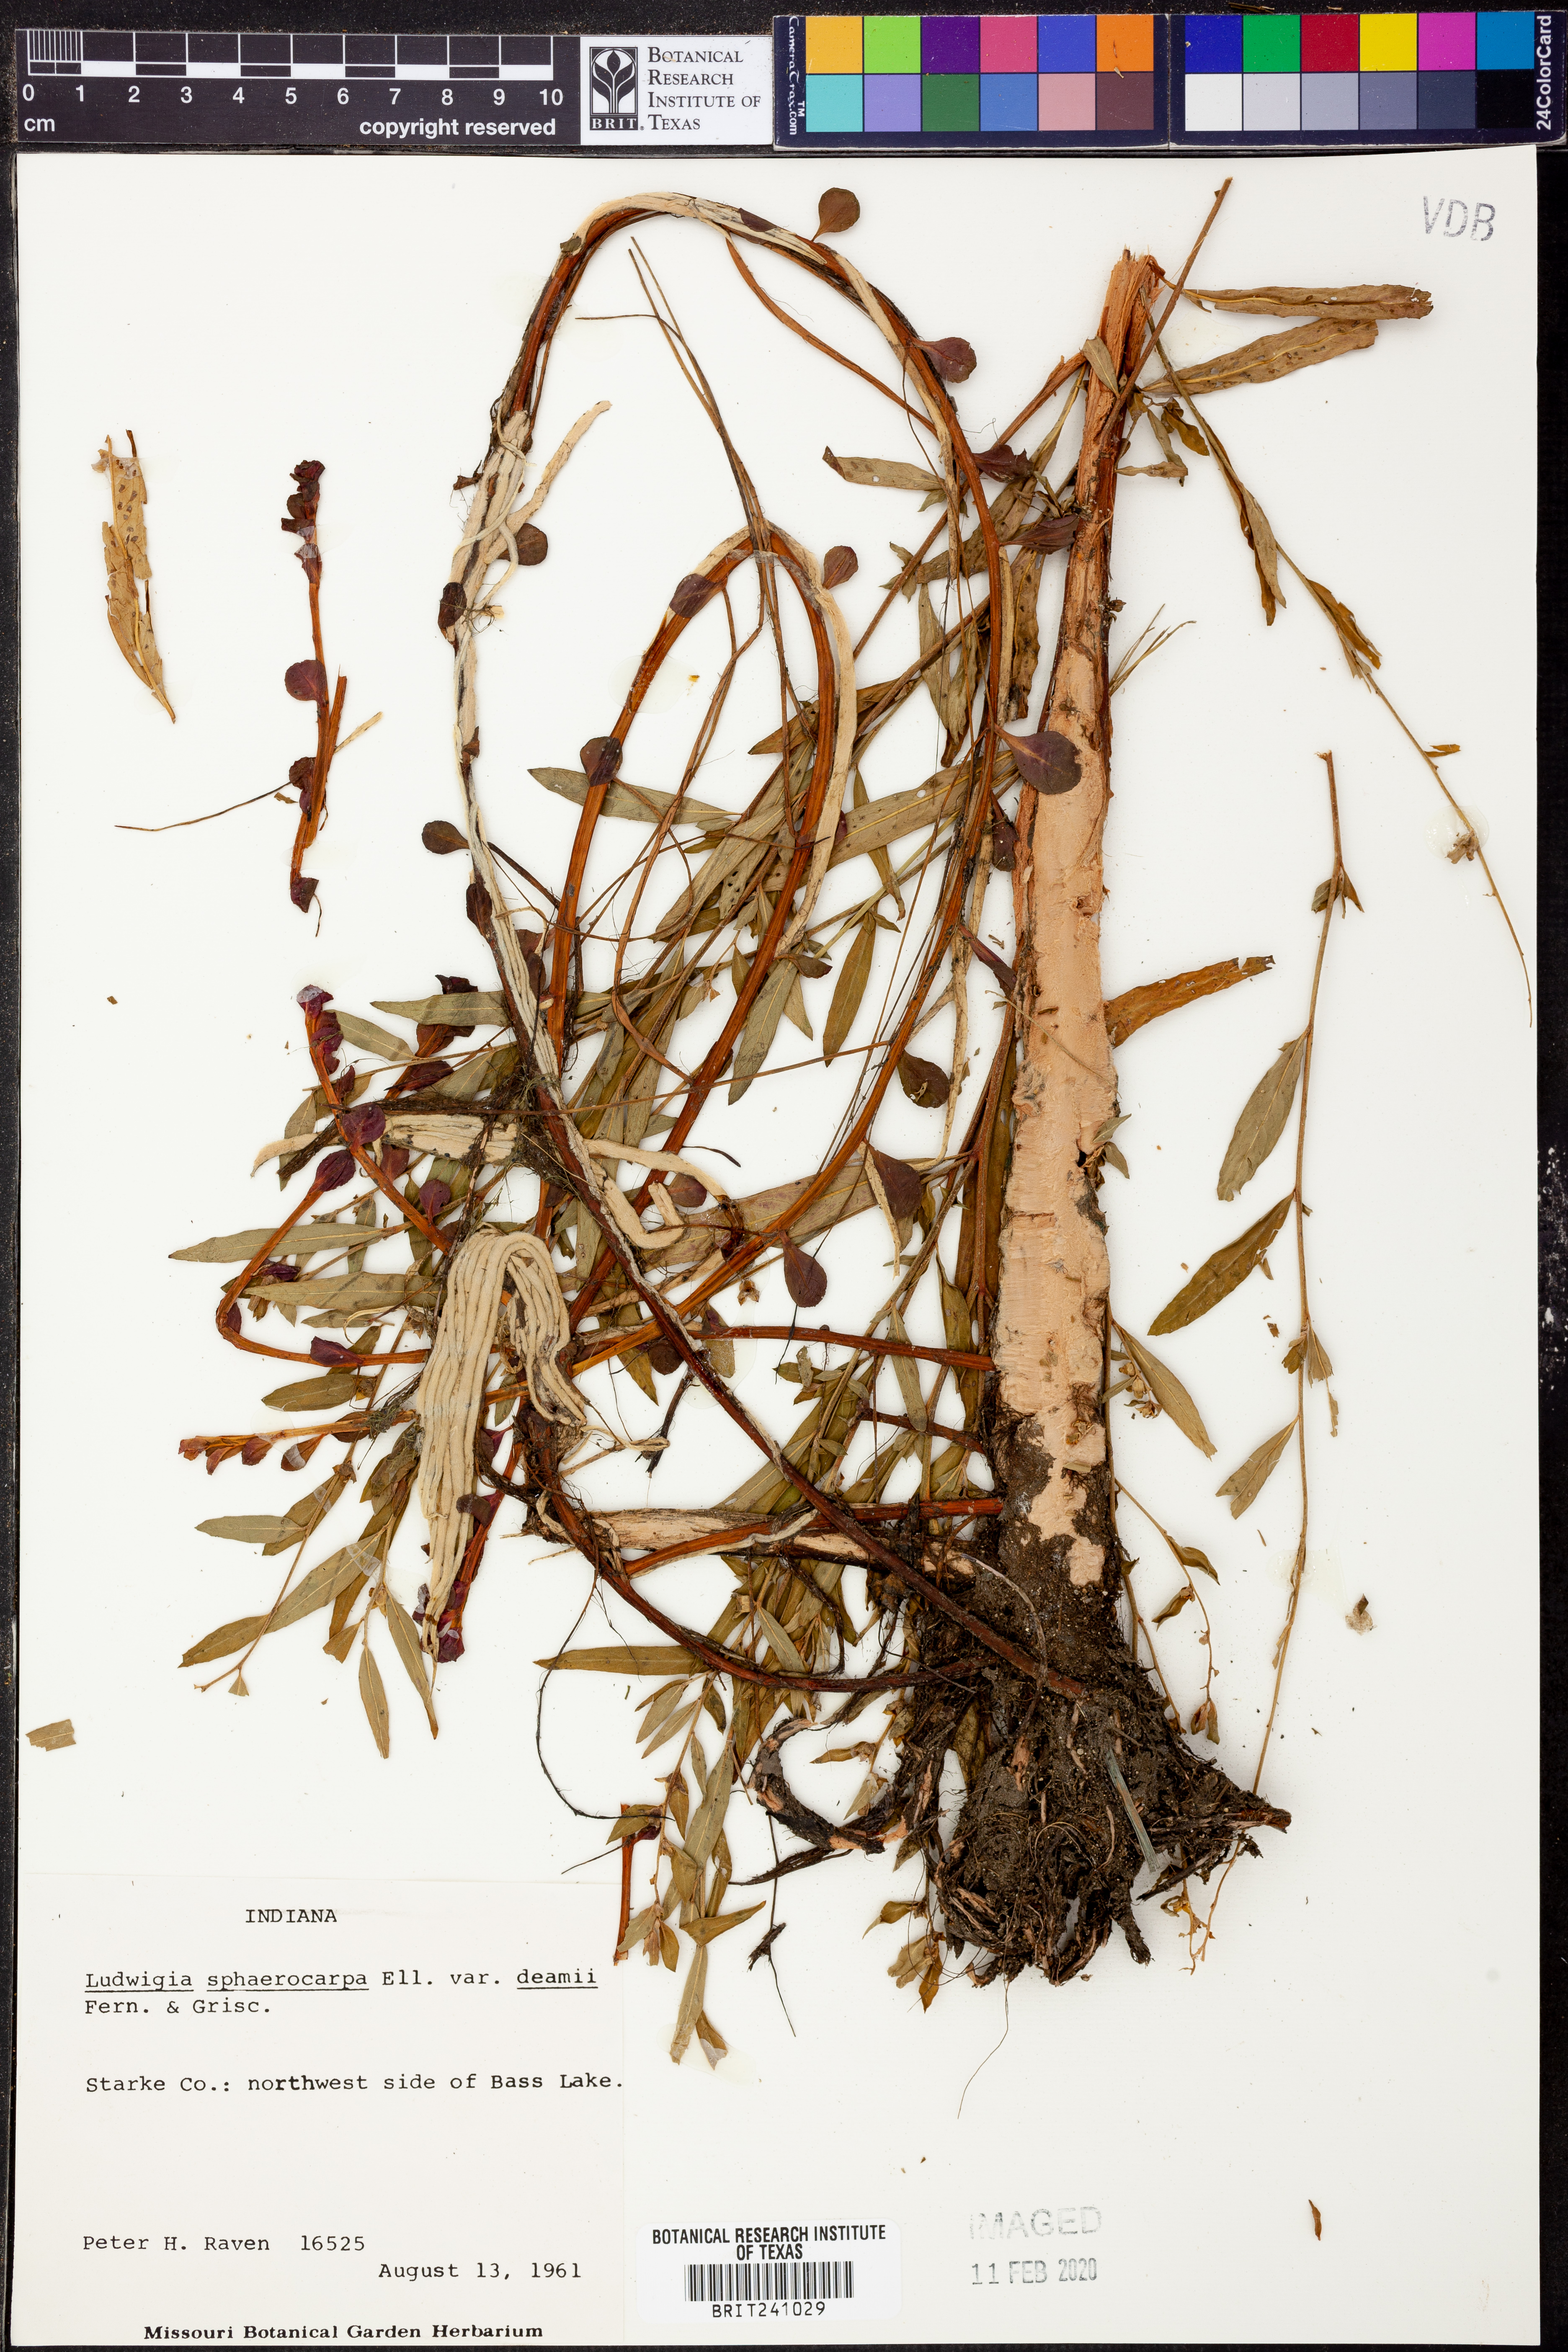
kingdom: Plantae
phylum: Tracheophyta
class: Magnoliopsida
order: Myrtales
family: Onagraceae
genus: Ludwigia
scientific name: Ludwigia sphaerocarpa
